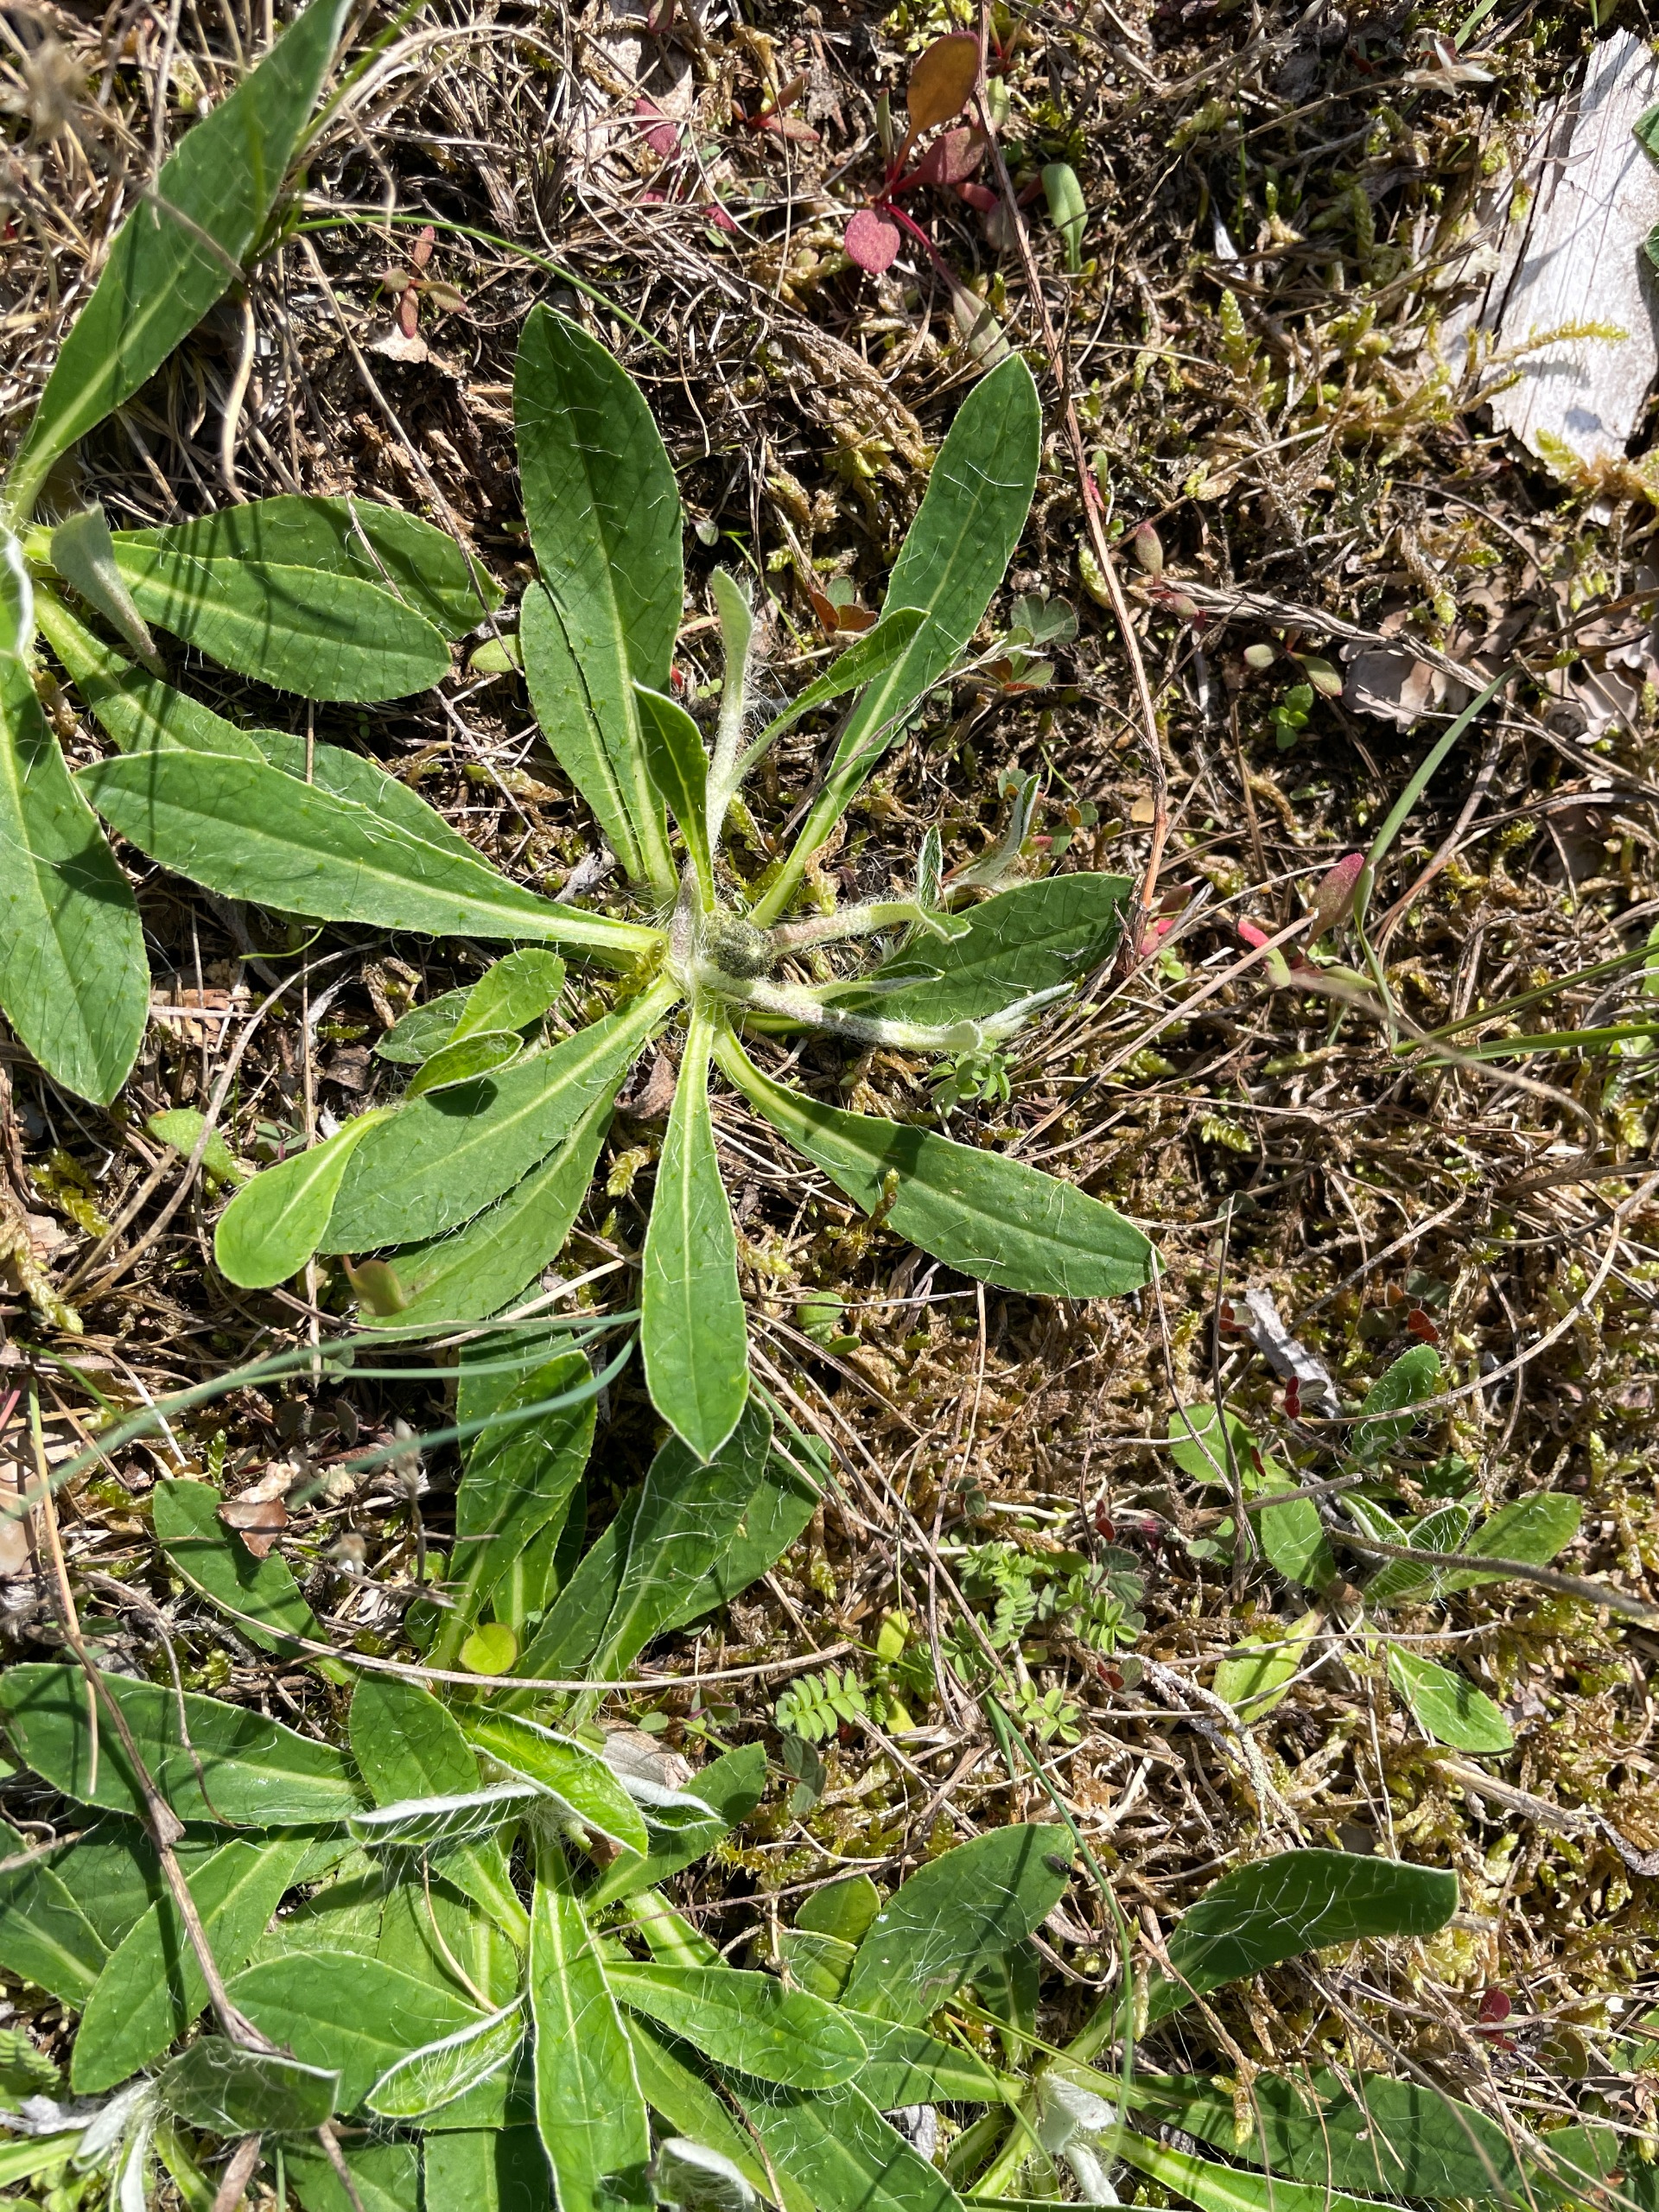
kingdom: Plantae
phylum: Tracheophyta
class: Magnoliopsida
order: Asterales
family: Asteraceae
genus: Pilosella
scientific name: Pilosella officinarum
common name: Håret høgeurt
